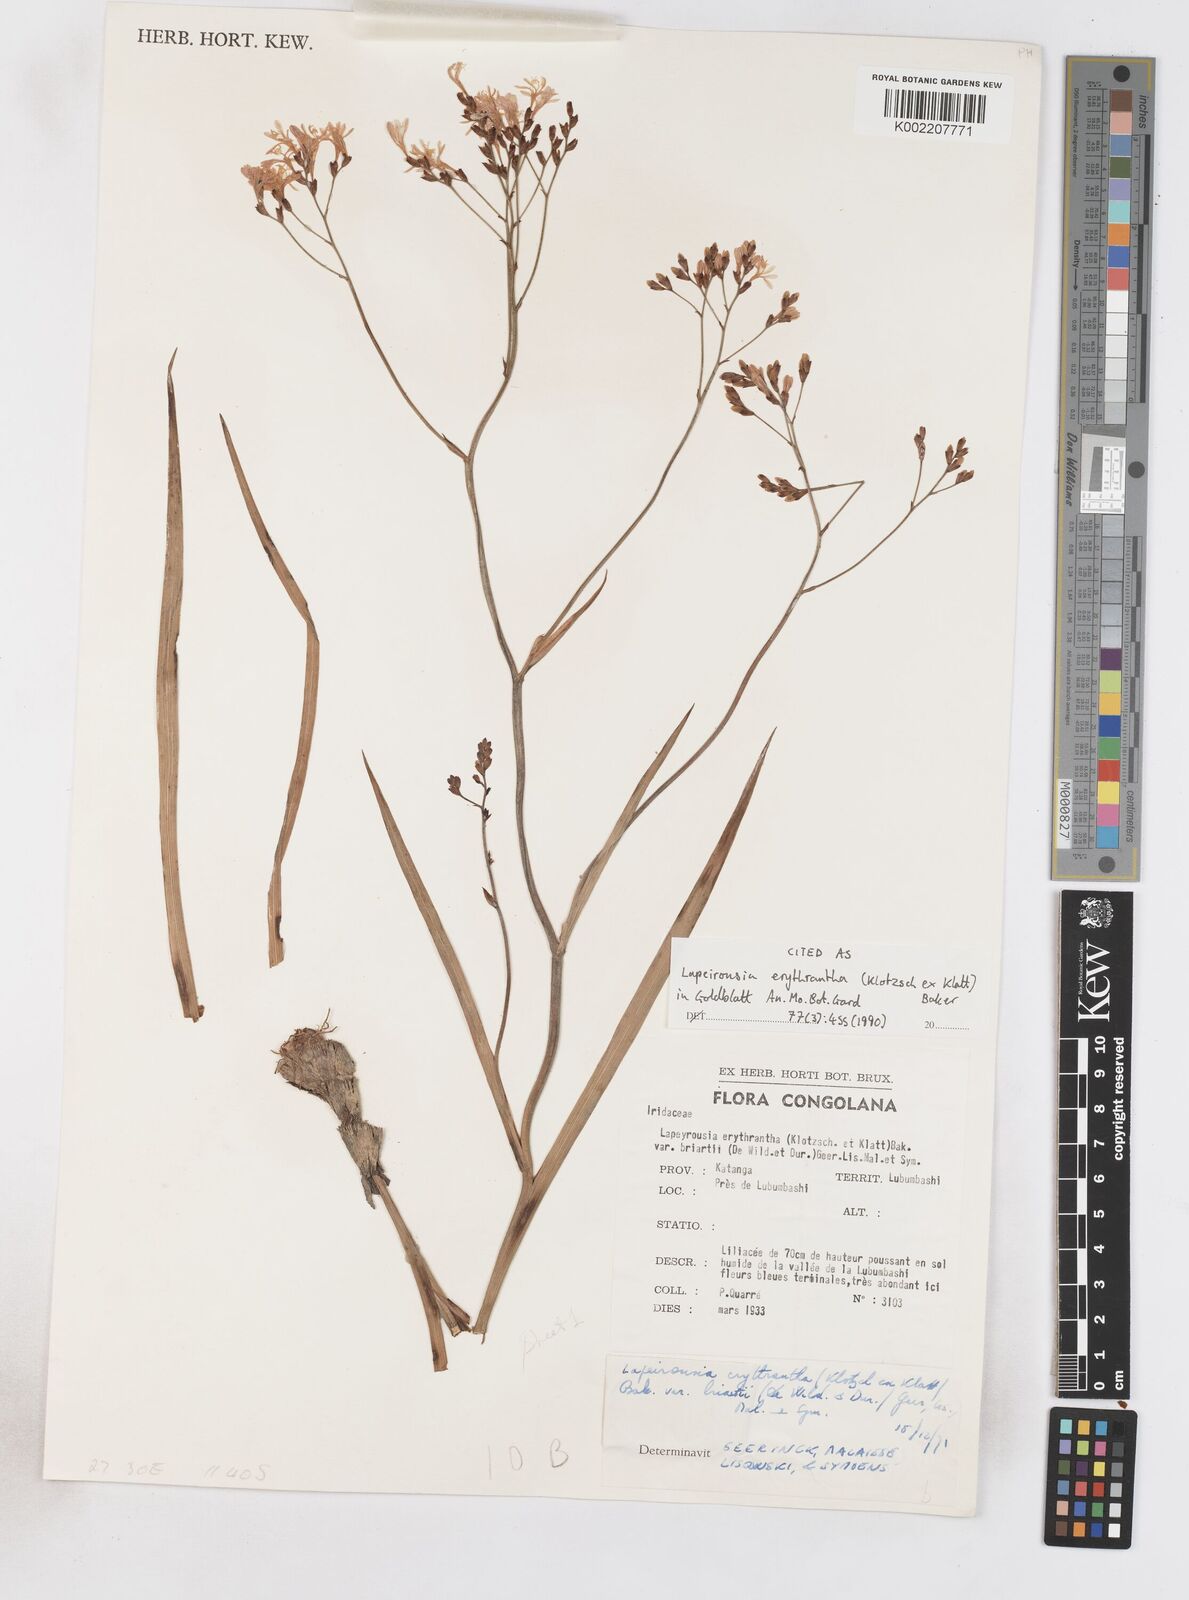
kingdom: Plantae
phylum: Tracheophyta
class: Liliopsida
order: Asparagales
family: Iridaceae
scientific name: Iridaceae
